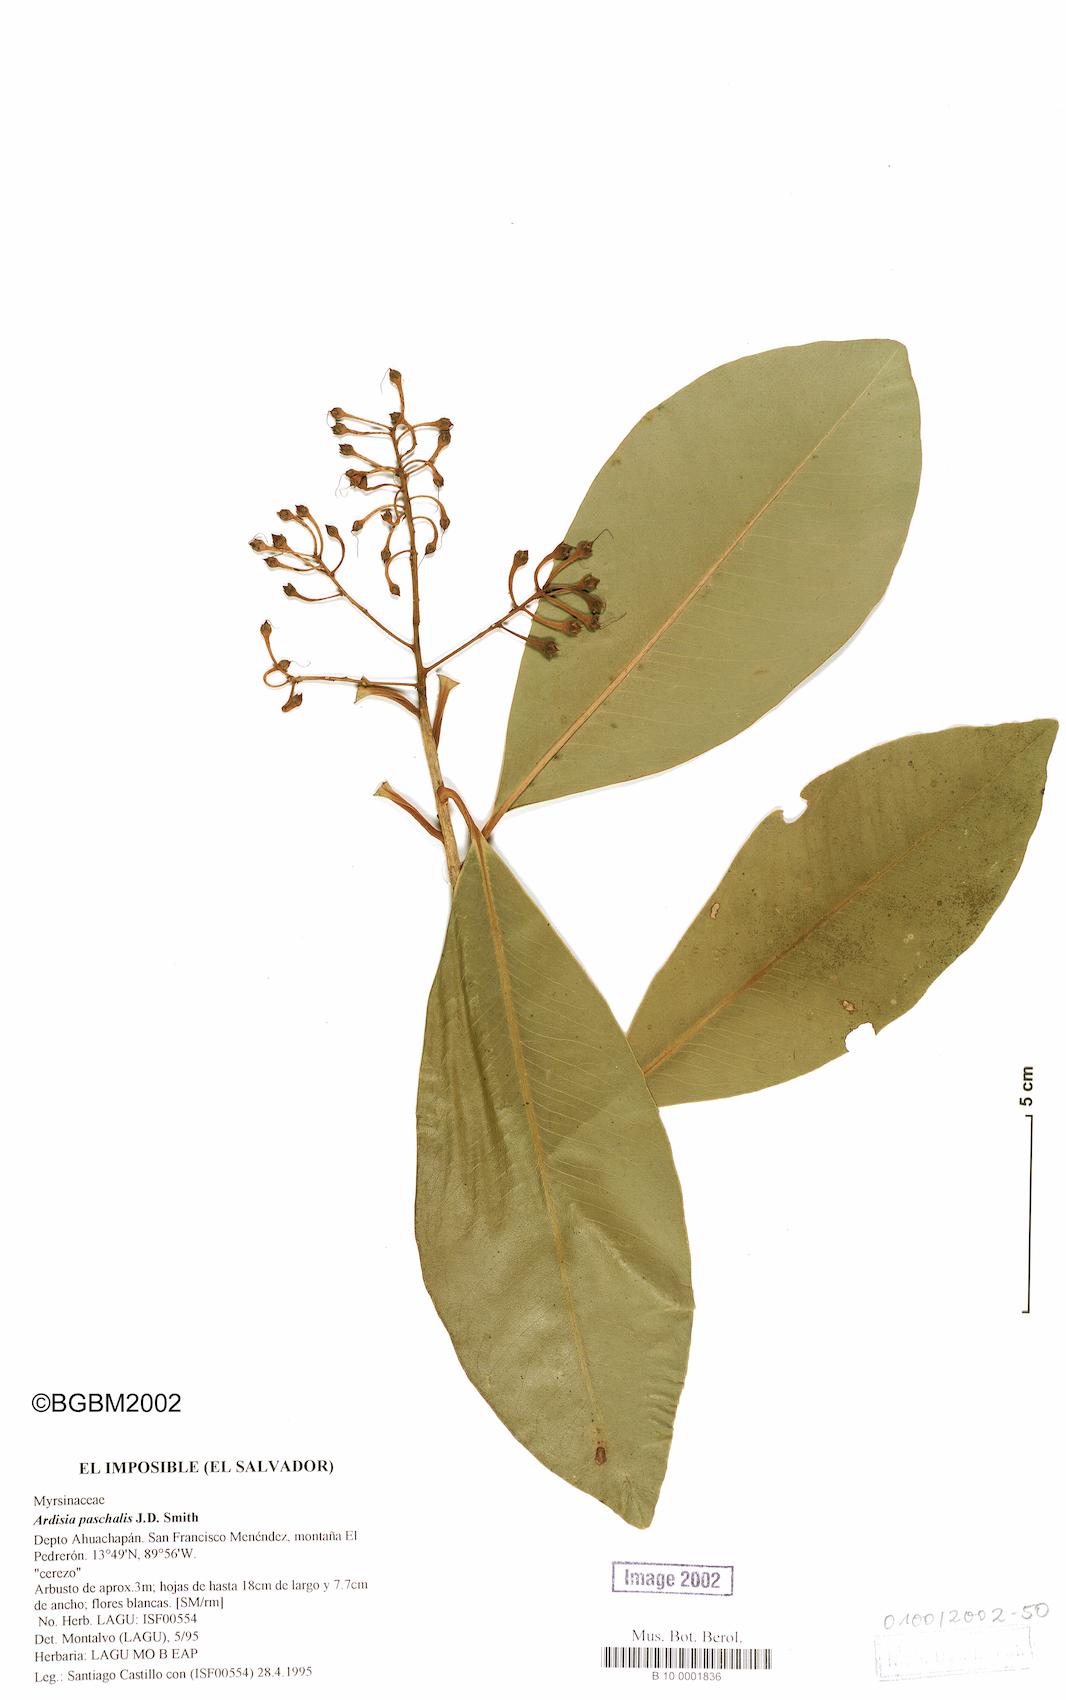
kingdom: Plantae
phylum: Tracheophyta
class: Magnoliopsida
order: Ericales
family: Primulaceae
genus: Ardisia
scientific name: Ardisia paschalis
